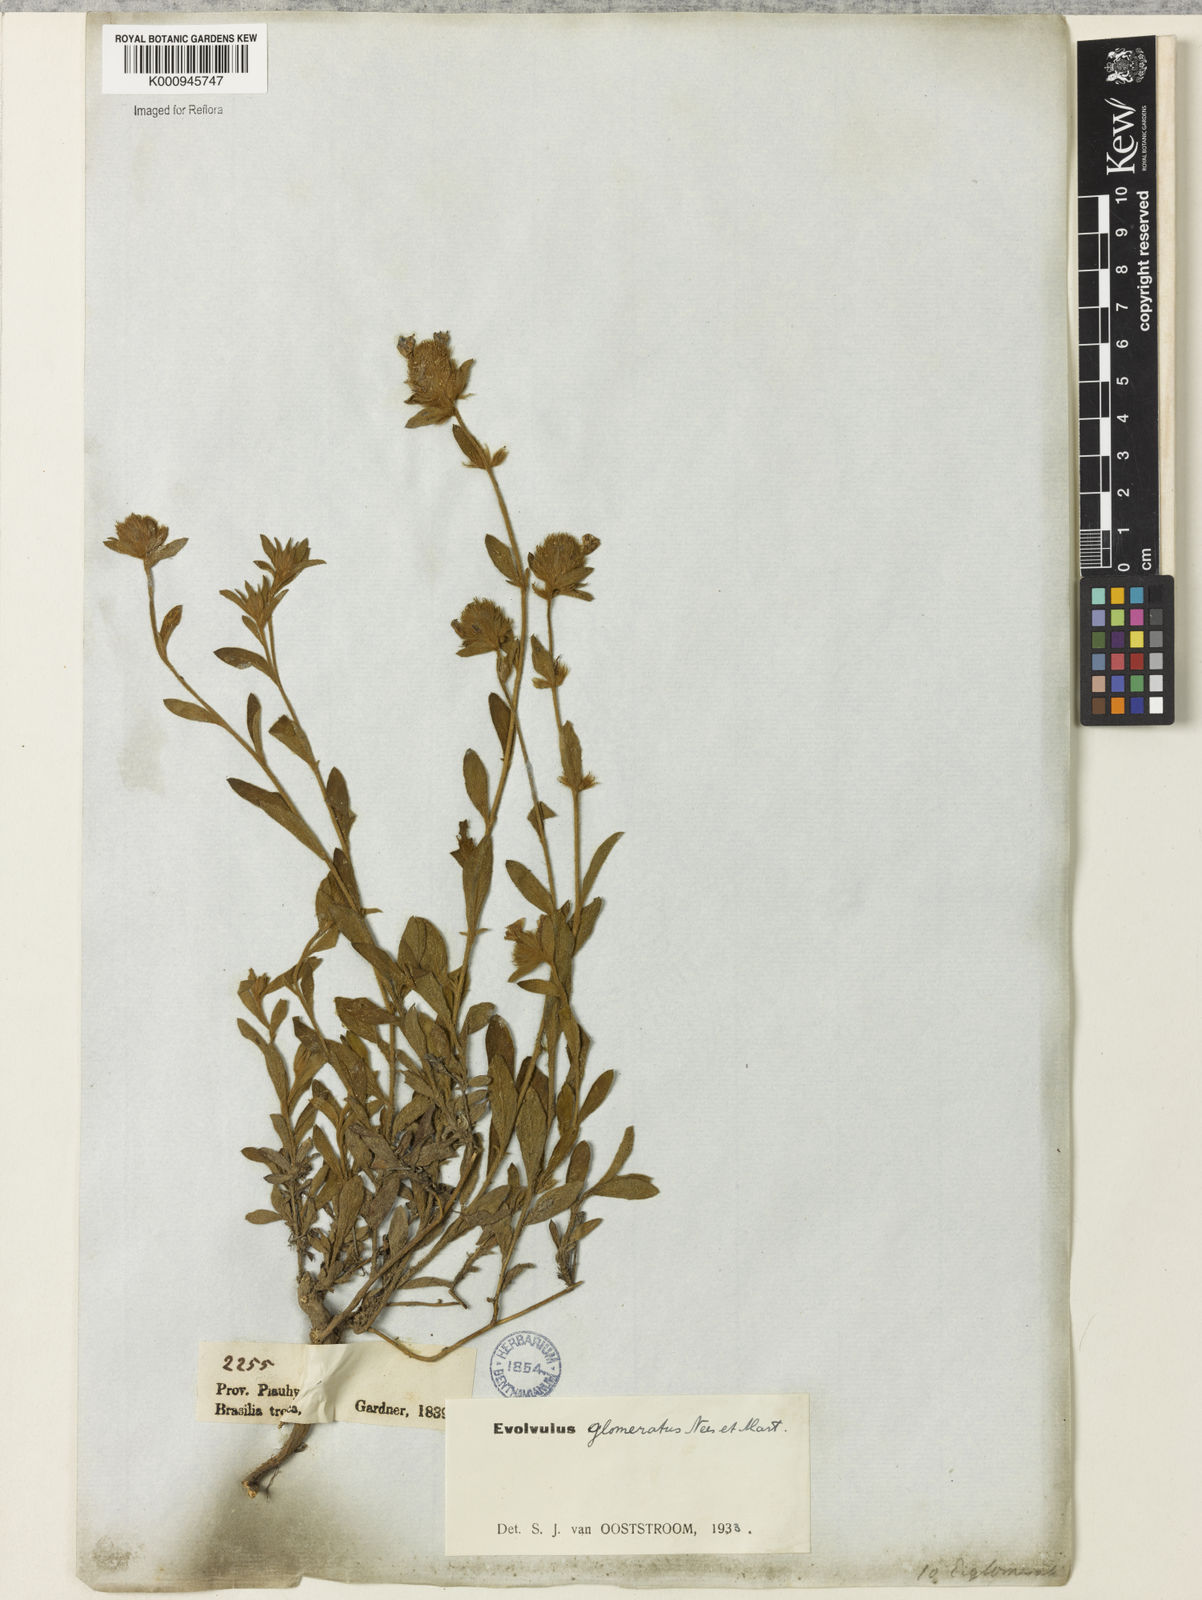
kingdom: Plantae
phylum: Tracheophyta
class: Magnoliopsida
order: Solanales
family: Convolvulaceae
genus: Evolvulus
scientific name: Evolvulus glomeratus
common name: Brazilian dwarf morning-glory
